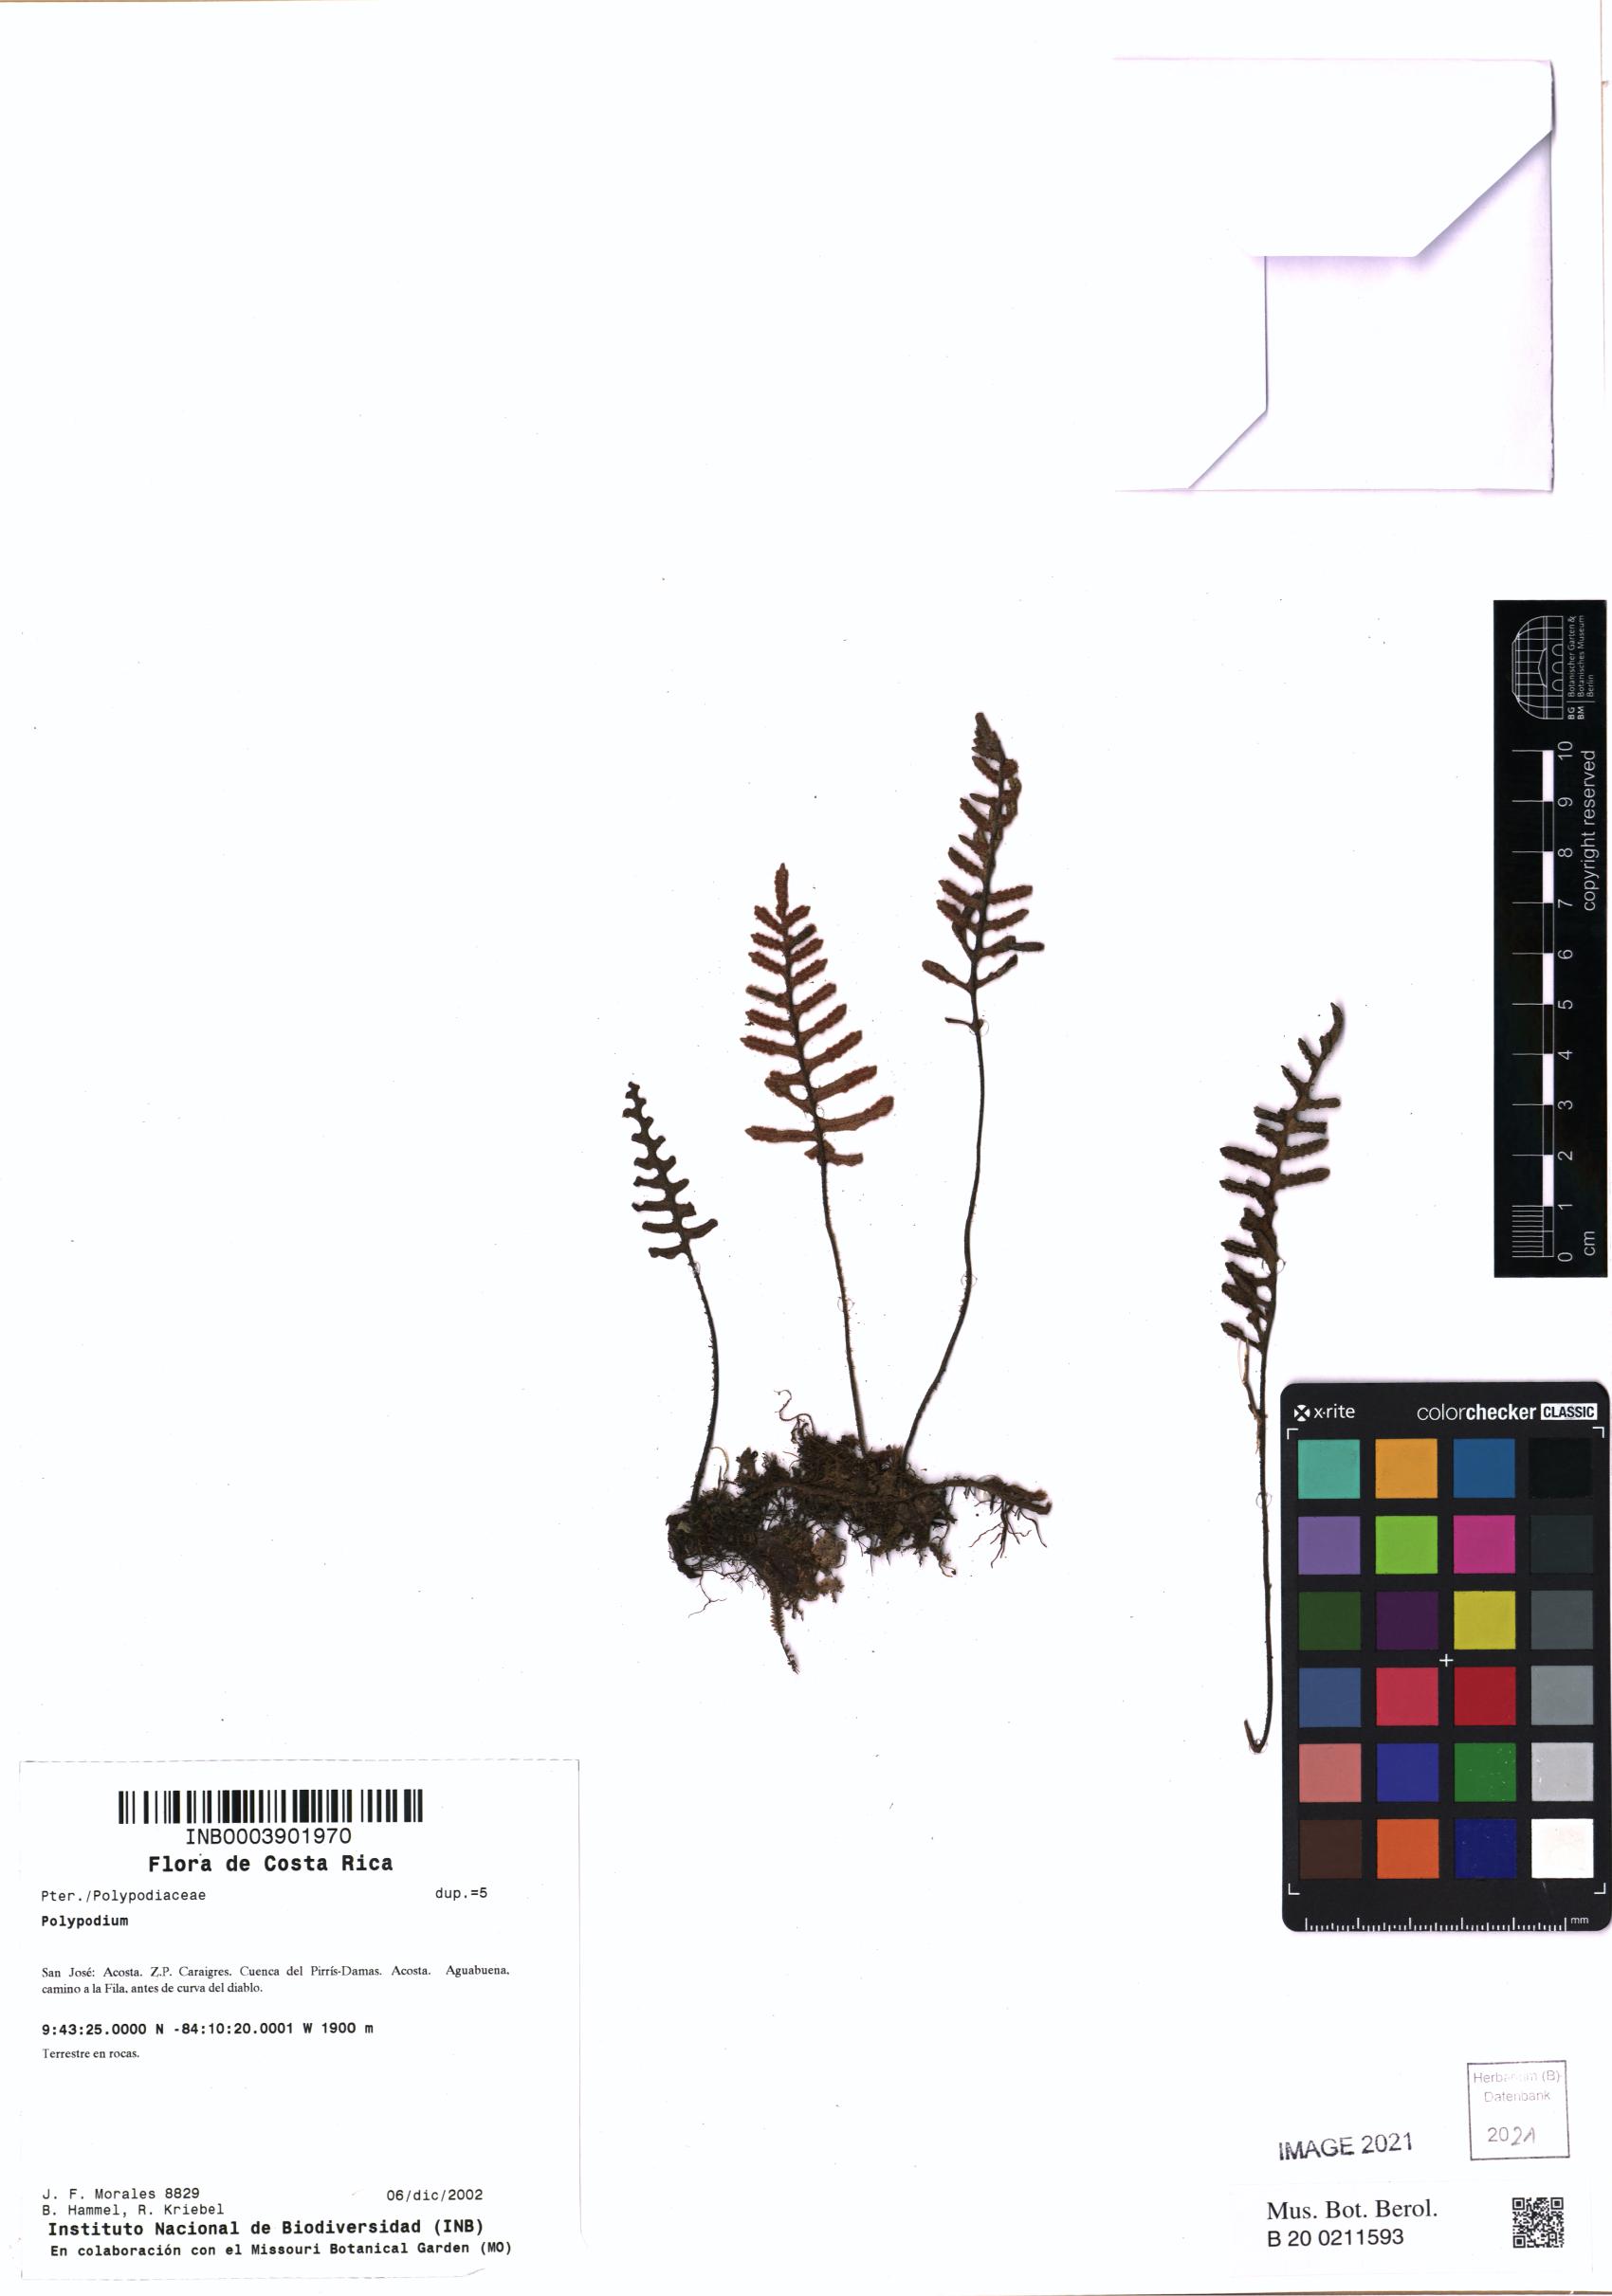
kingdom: Plantae
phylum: Tracheophyta
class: Polypodiopsida
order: Polypodiales
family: Polypodiaceae
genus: Pleopeltis
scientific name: Pleopeltis polypodioides
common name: Resurrection fern
